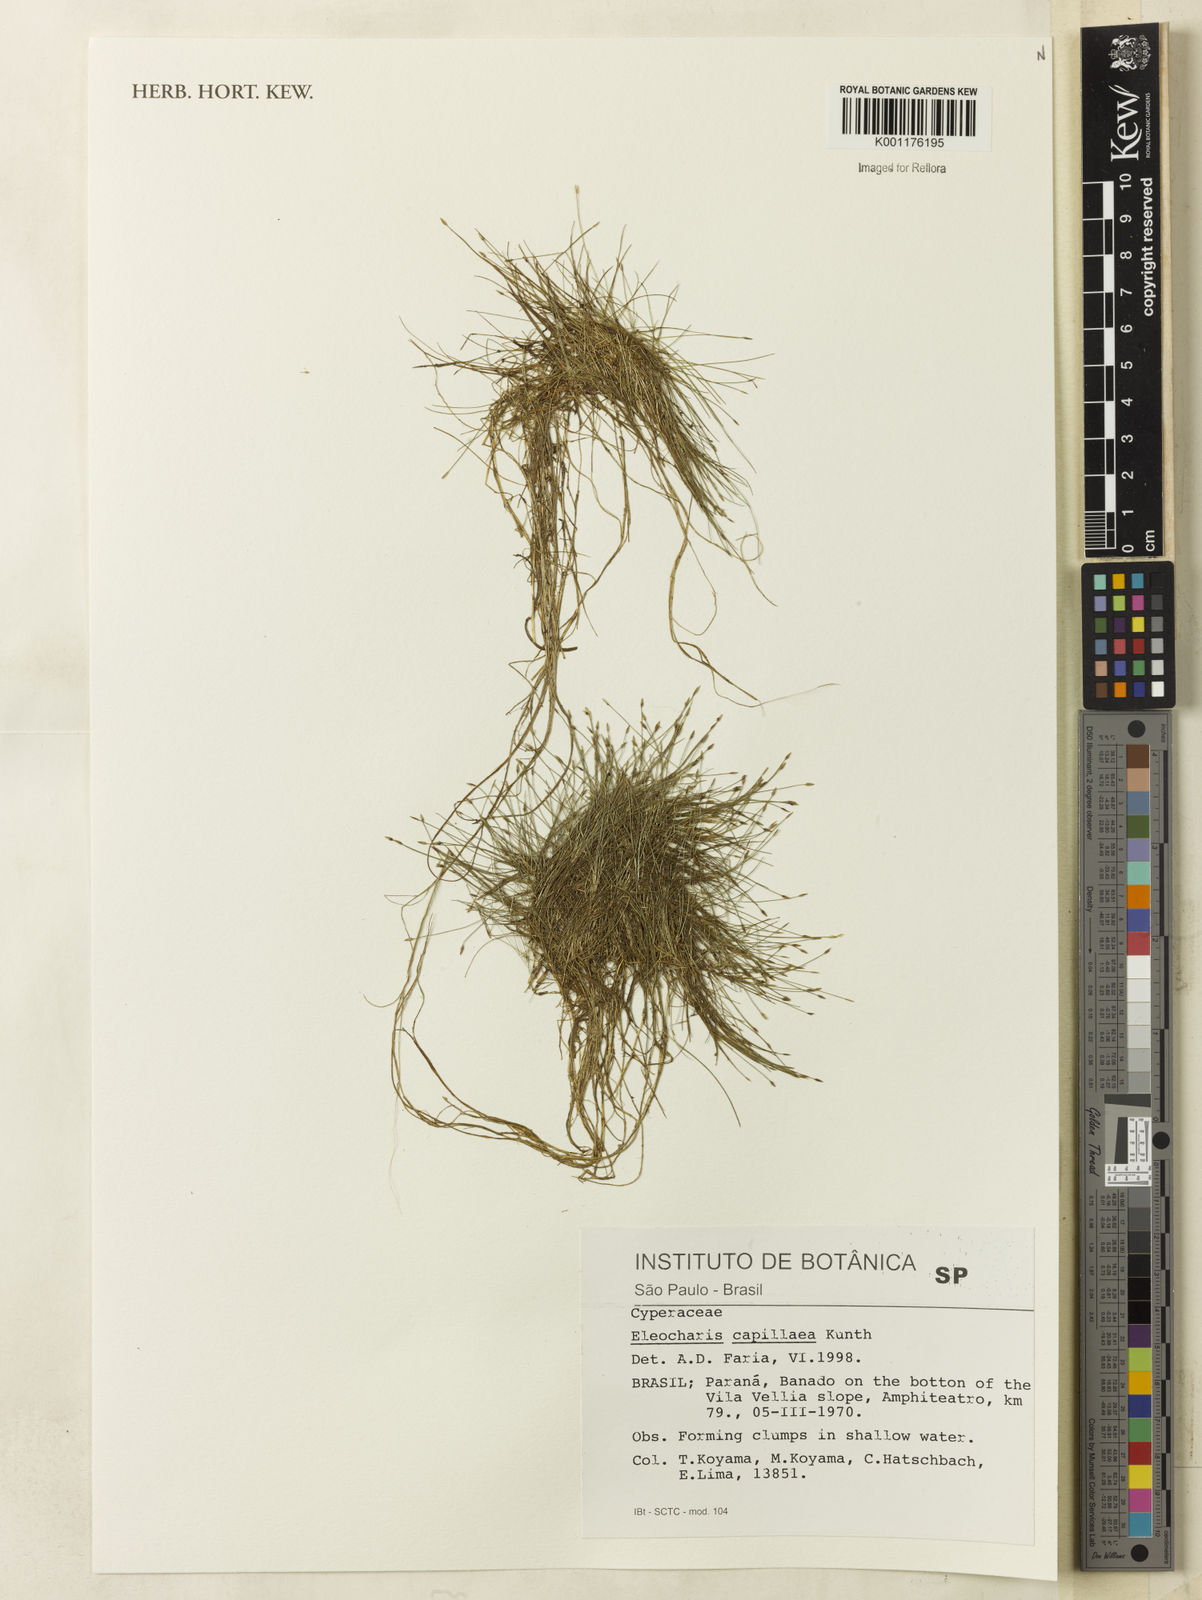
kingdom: Plantae
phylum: Tracheophyta
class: Liliopsida
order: Poales
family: Cyperaceae
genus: Eleocharis
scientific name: Eleocharis capillacea
